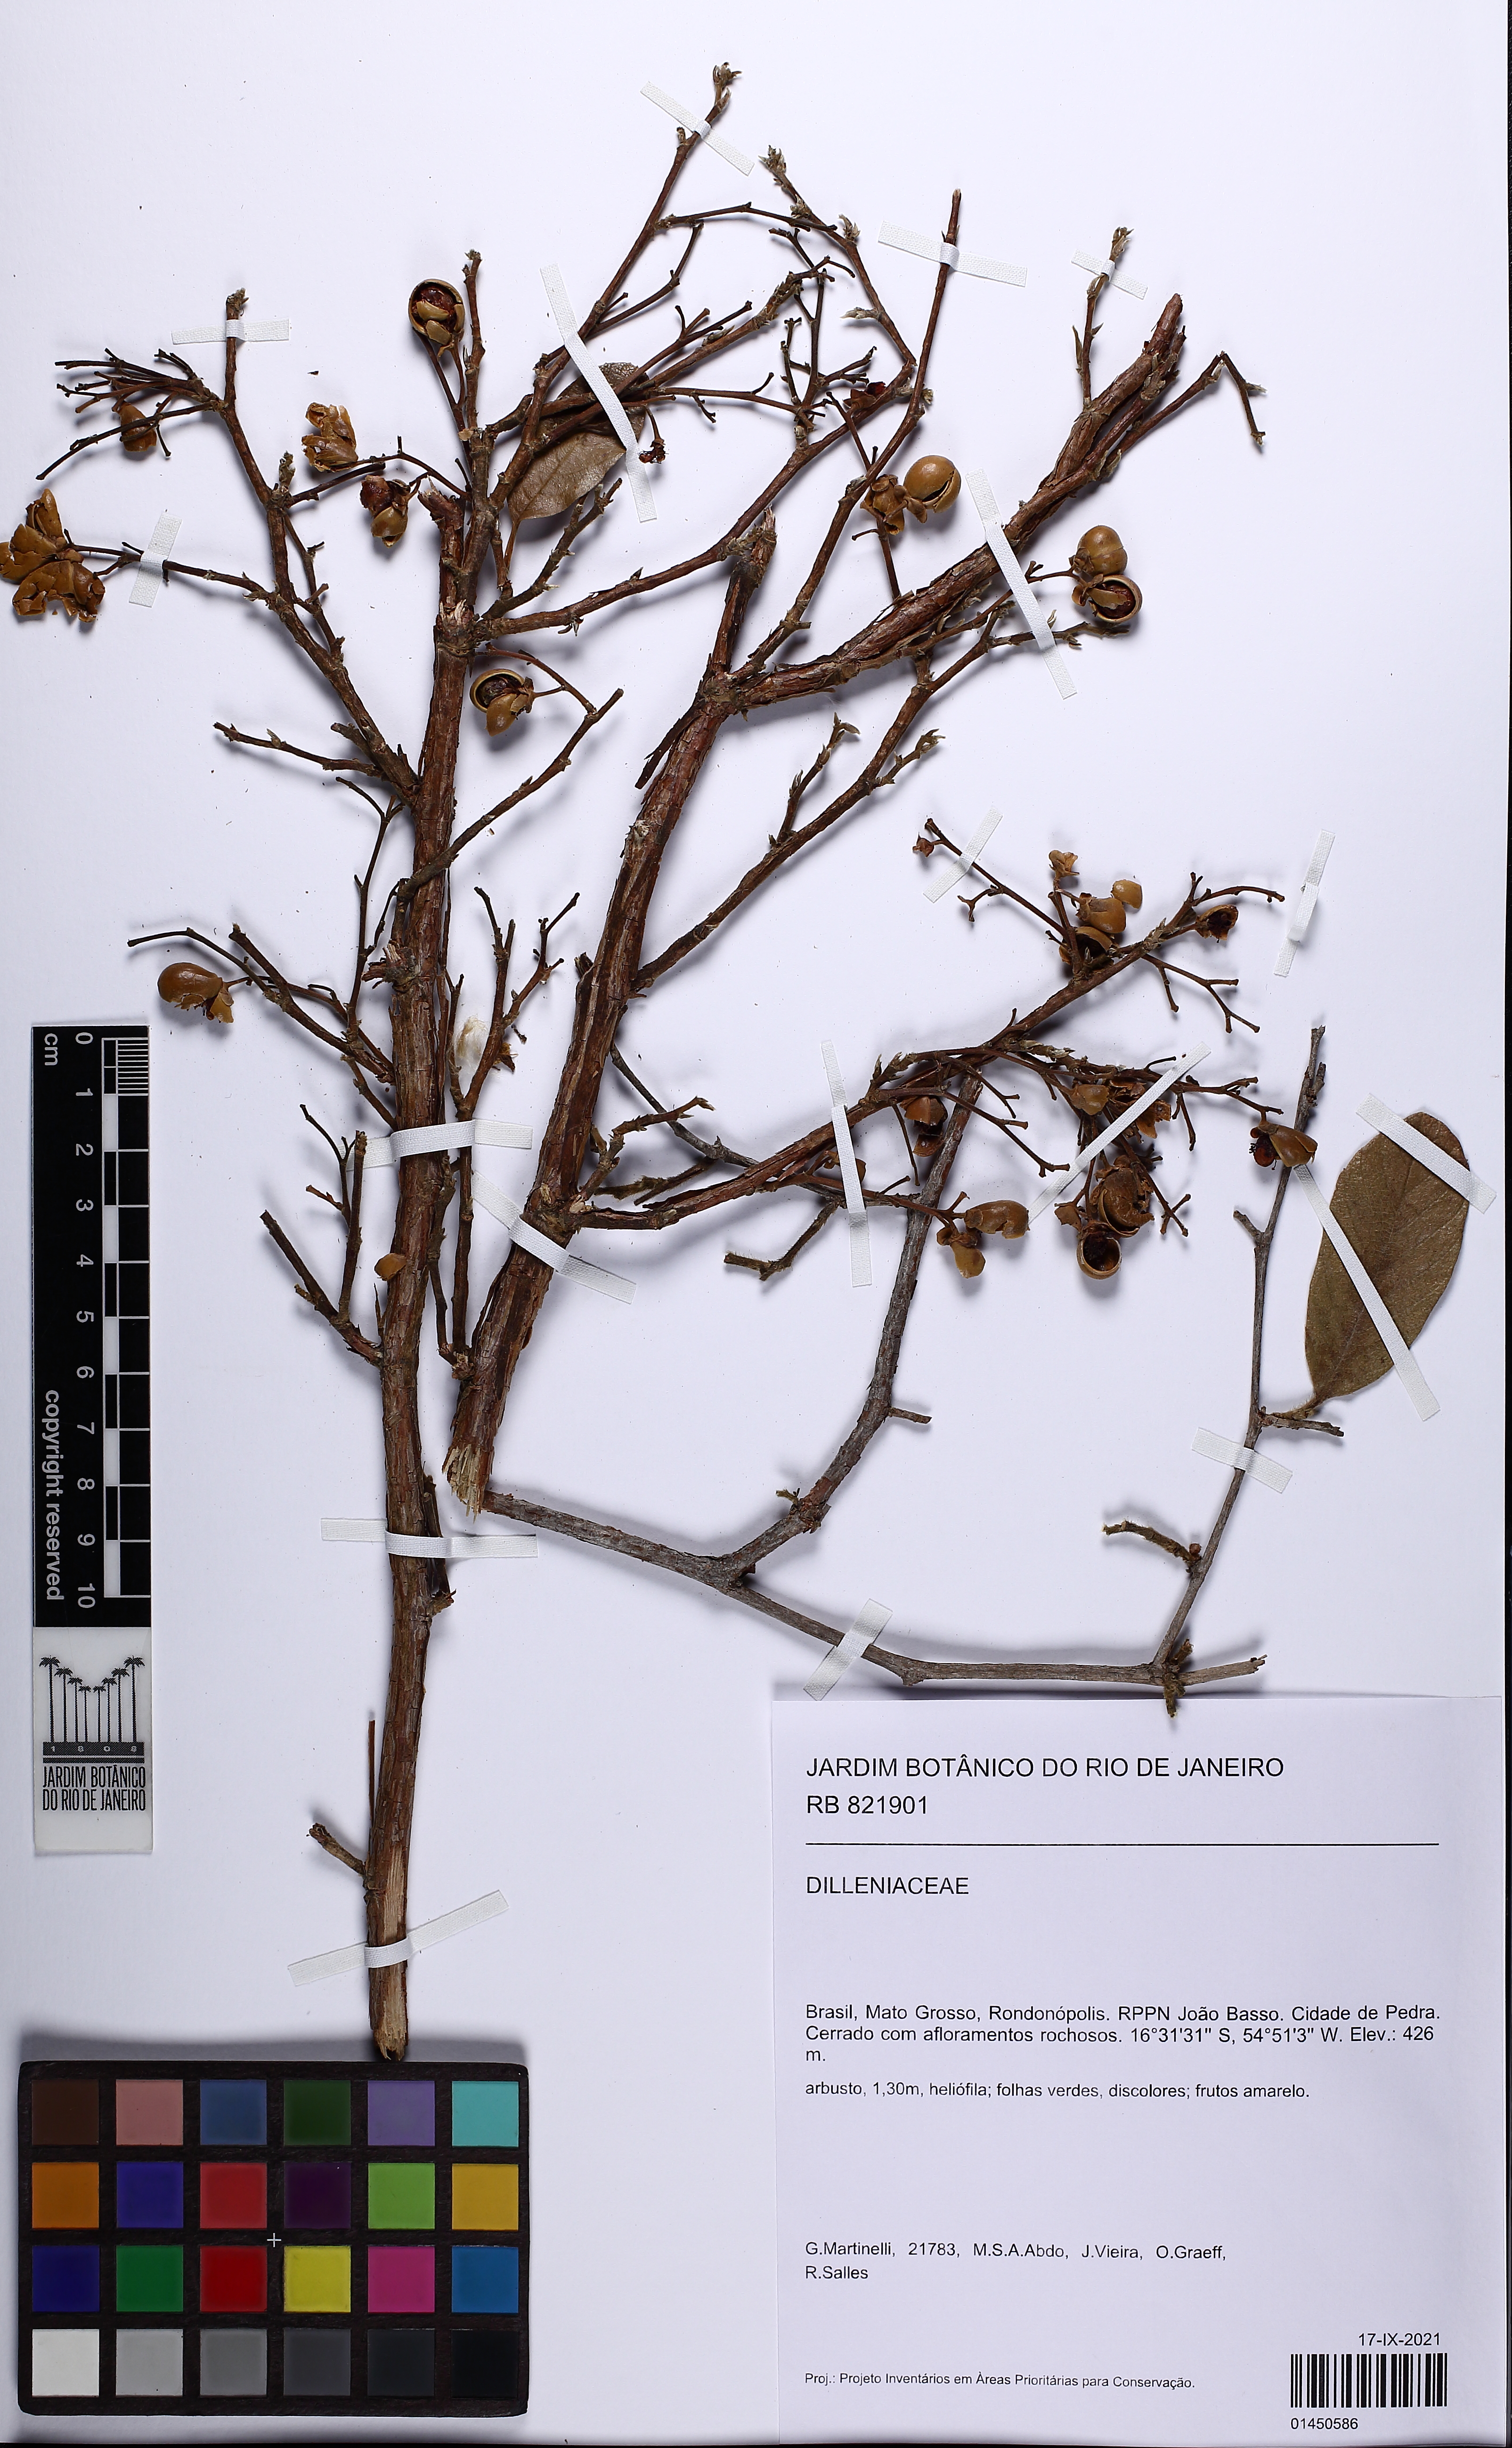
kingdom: Plantae
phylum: Tracheophyta
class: Magnoliopsida
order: Dilleniales
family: Dilleniaceae
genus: Davilla
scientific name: Davilla elliptica
